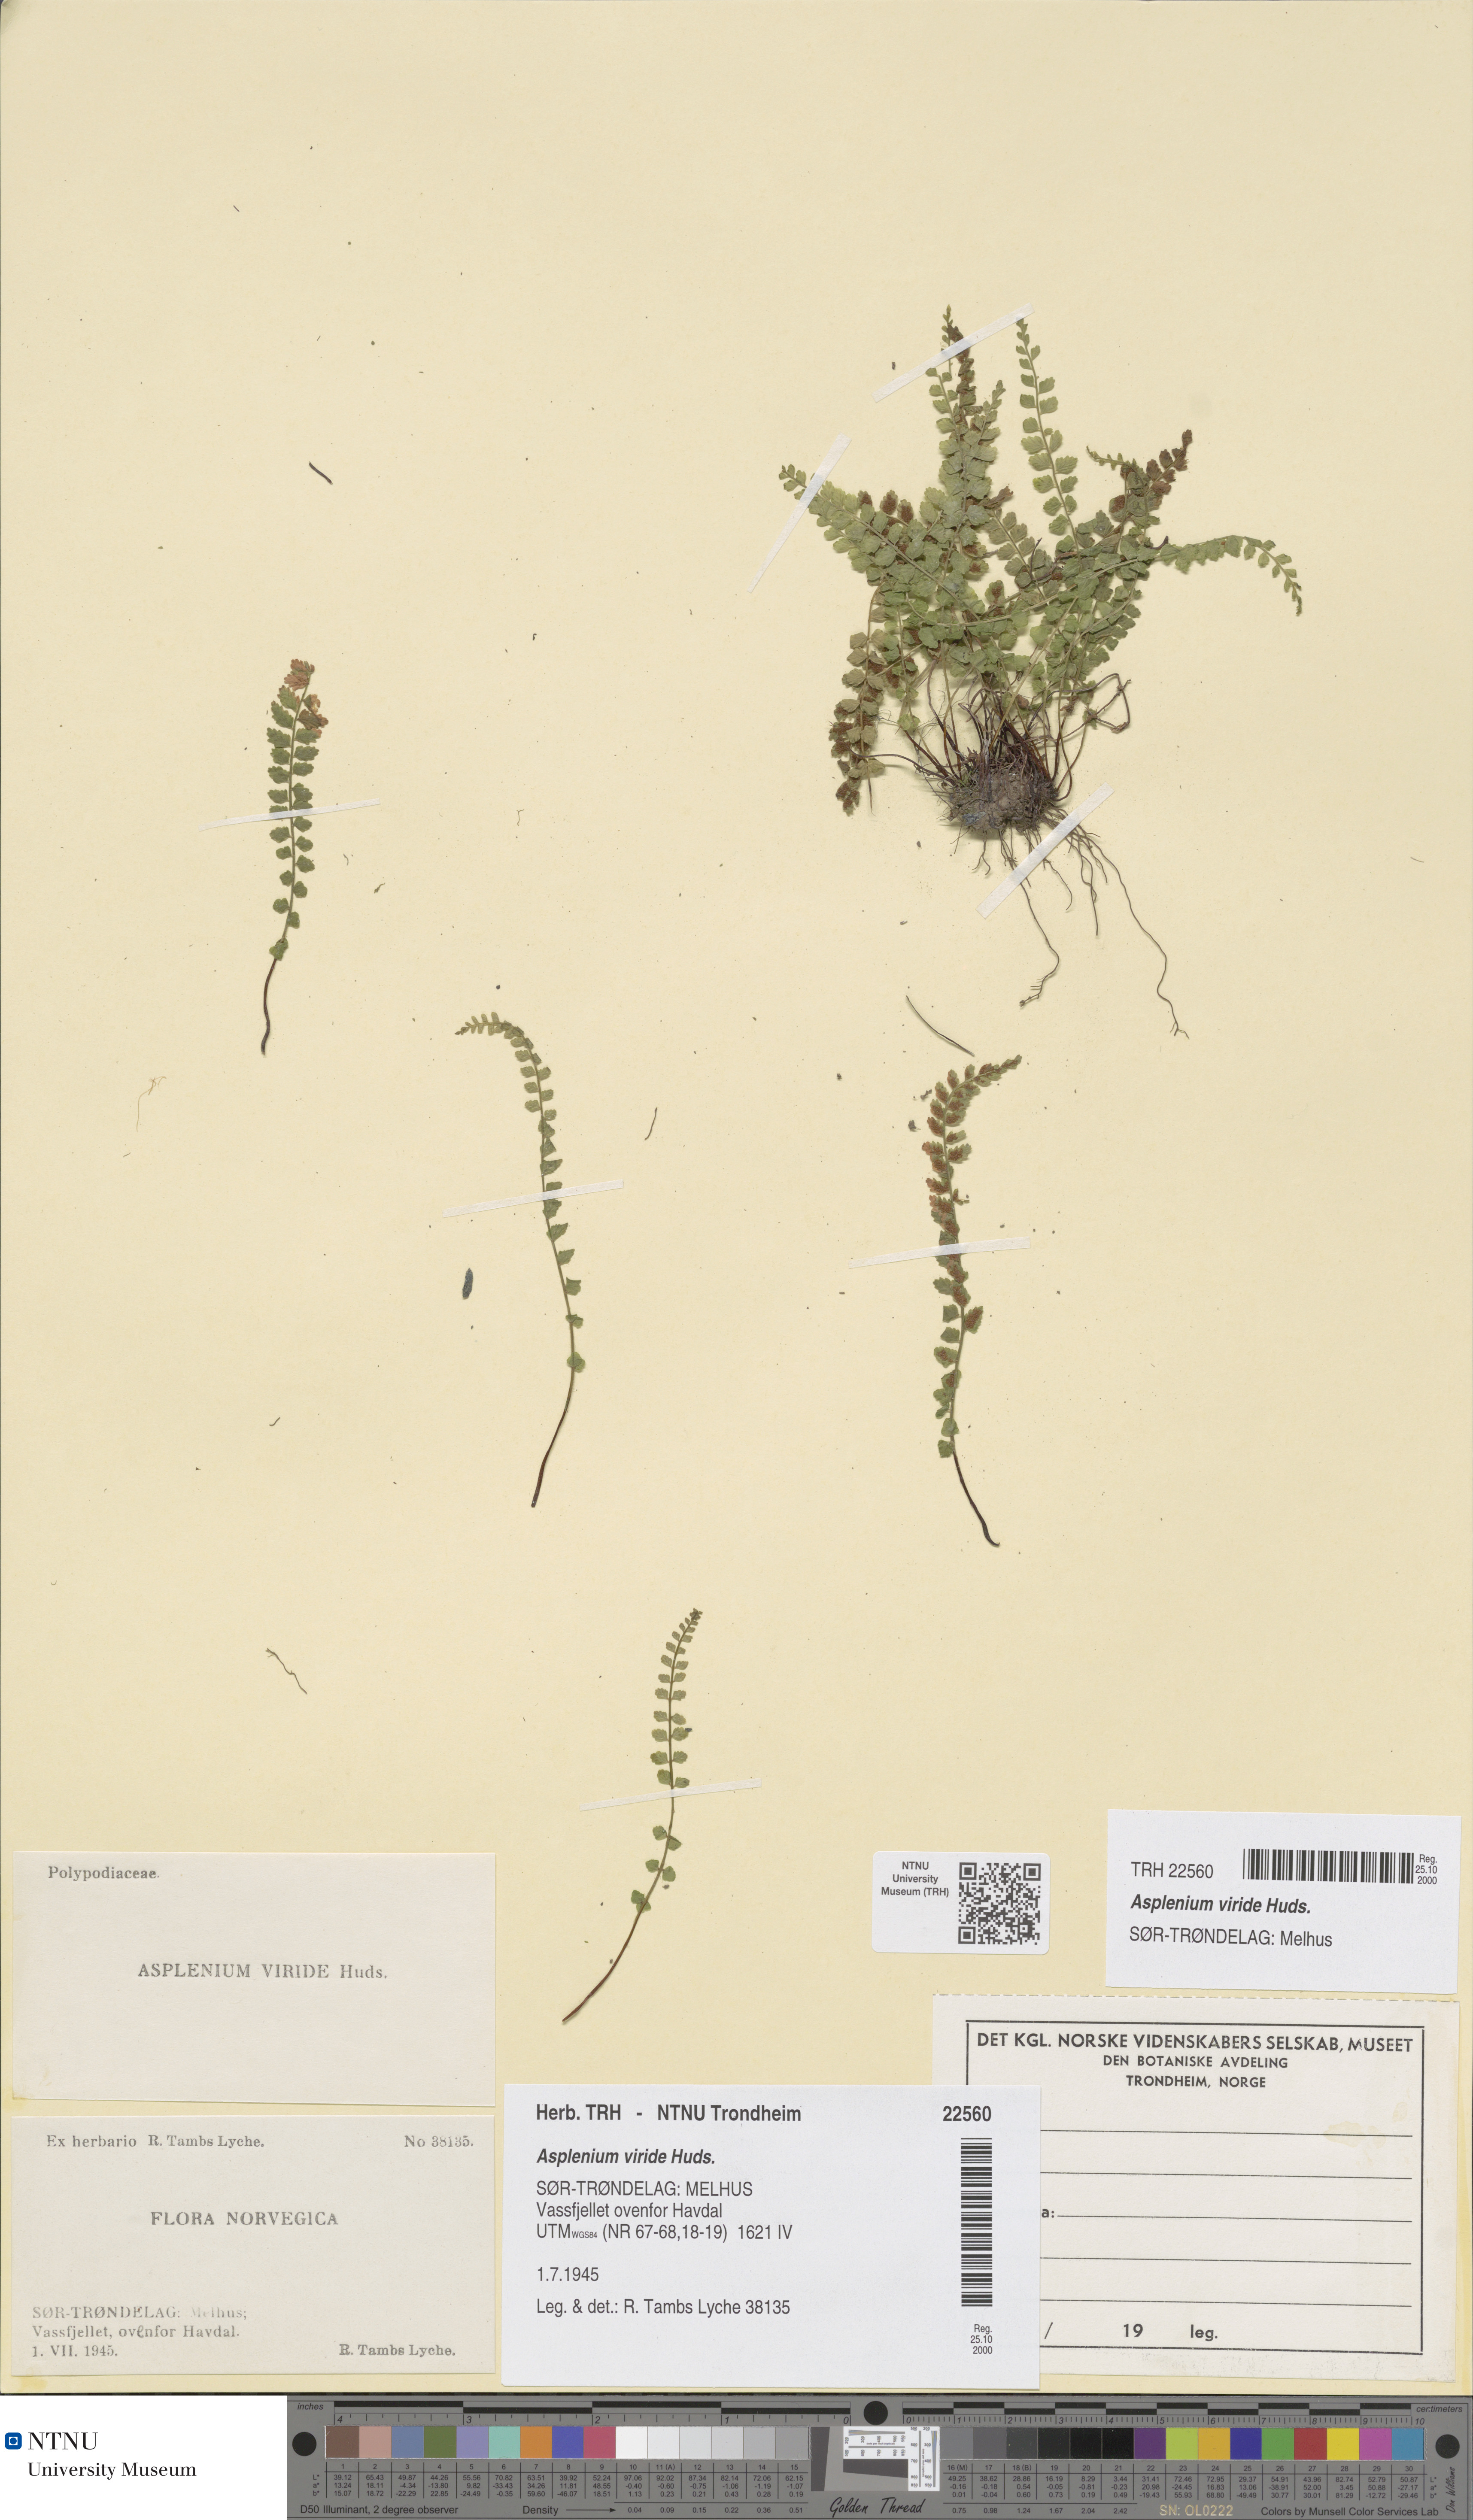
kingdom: Plantae
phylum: Tracheophyta
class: Polypodiopsida
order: Polypodiales
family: Aspleniaceae
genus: Asplenium
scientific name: Asplenium viride
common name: Green spleenwort
